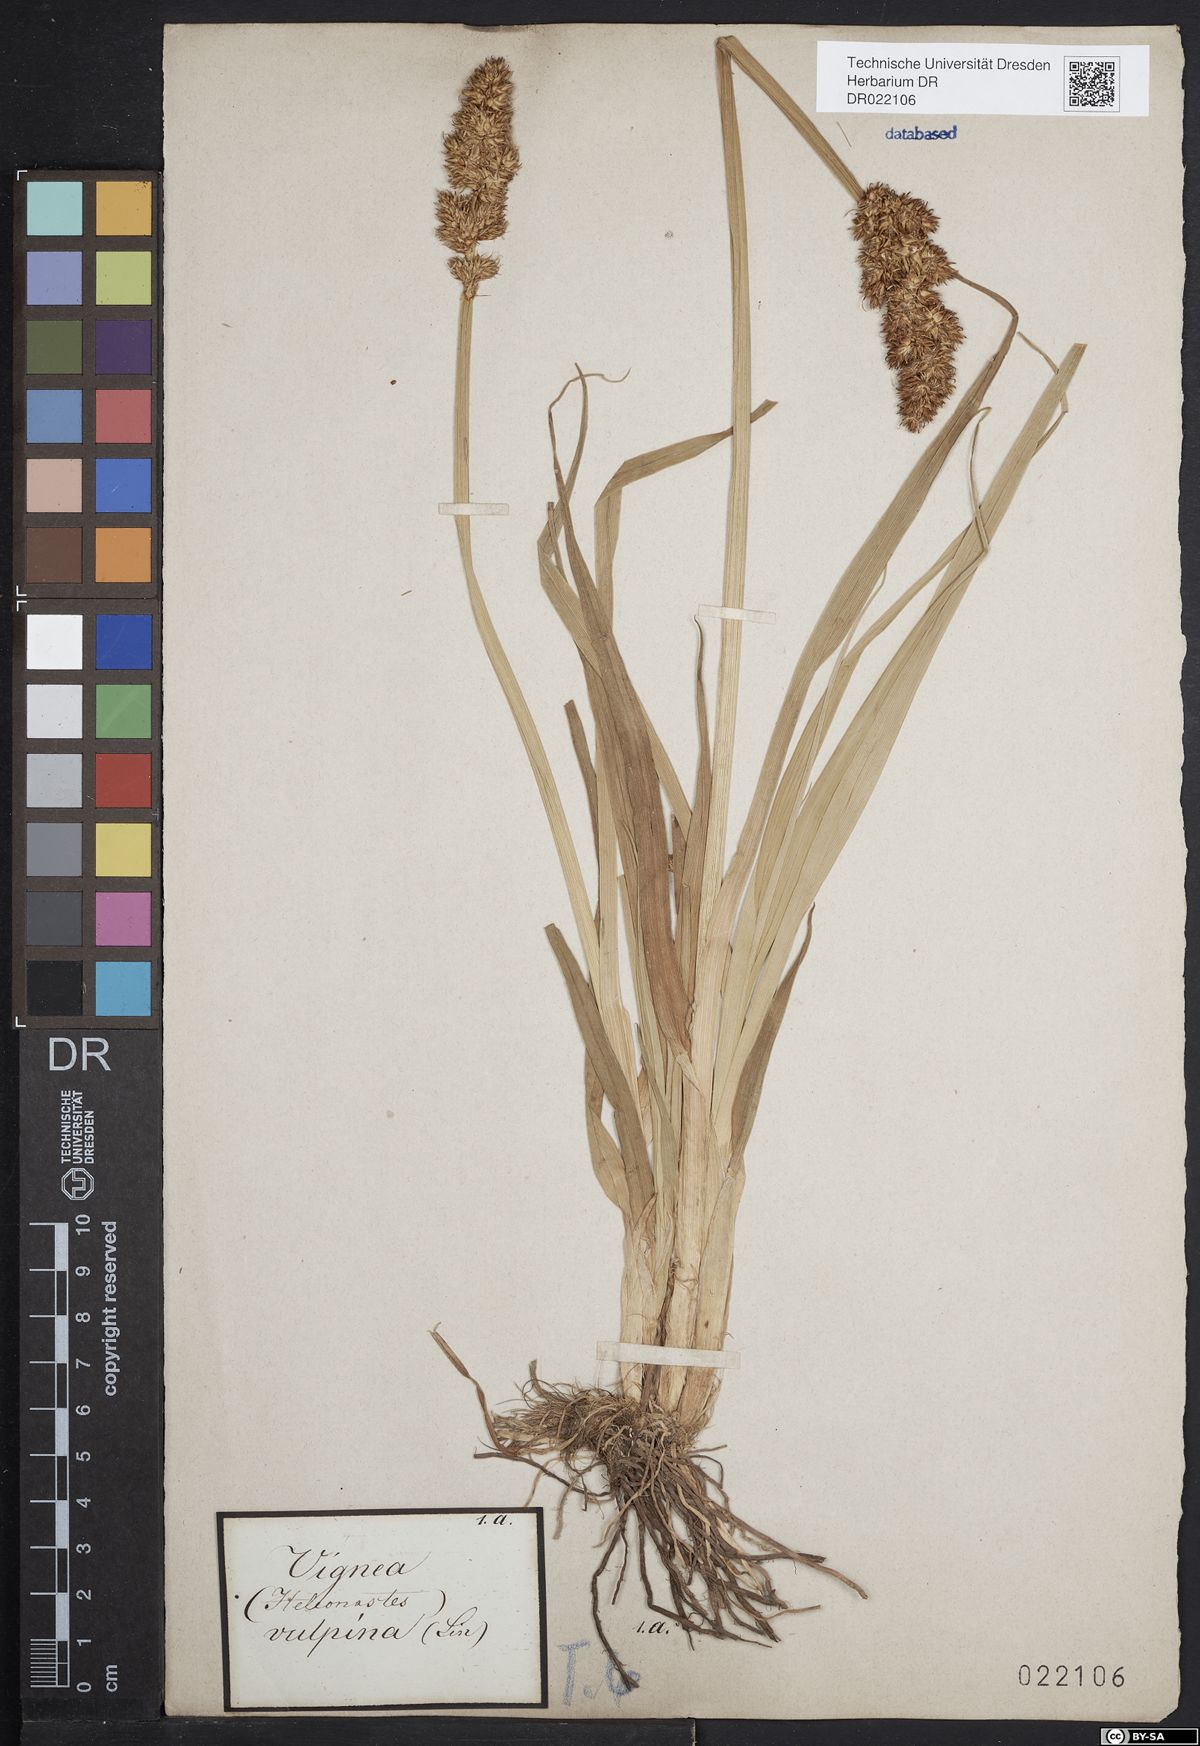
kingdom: Plantae
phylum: Tracheophyta
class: Liliopsida
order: Poales
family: Cyperaceae
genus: Carex
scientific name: Carex vulpina
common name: True fox-sedge
